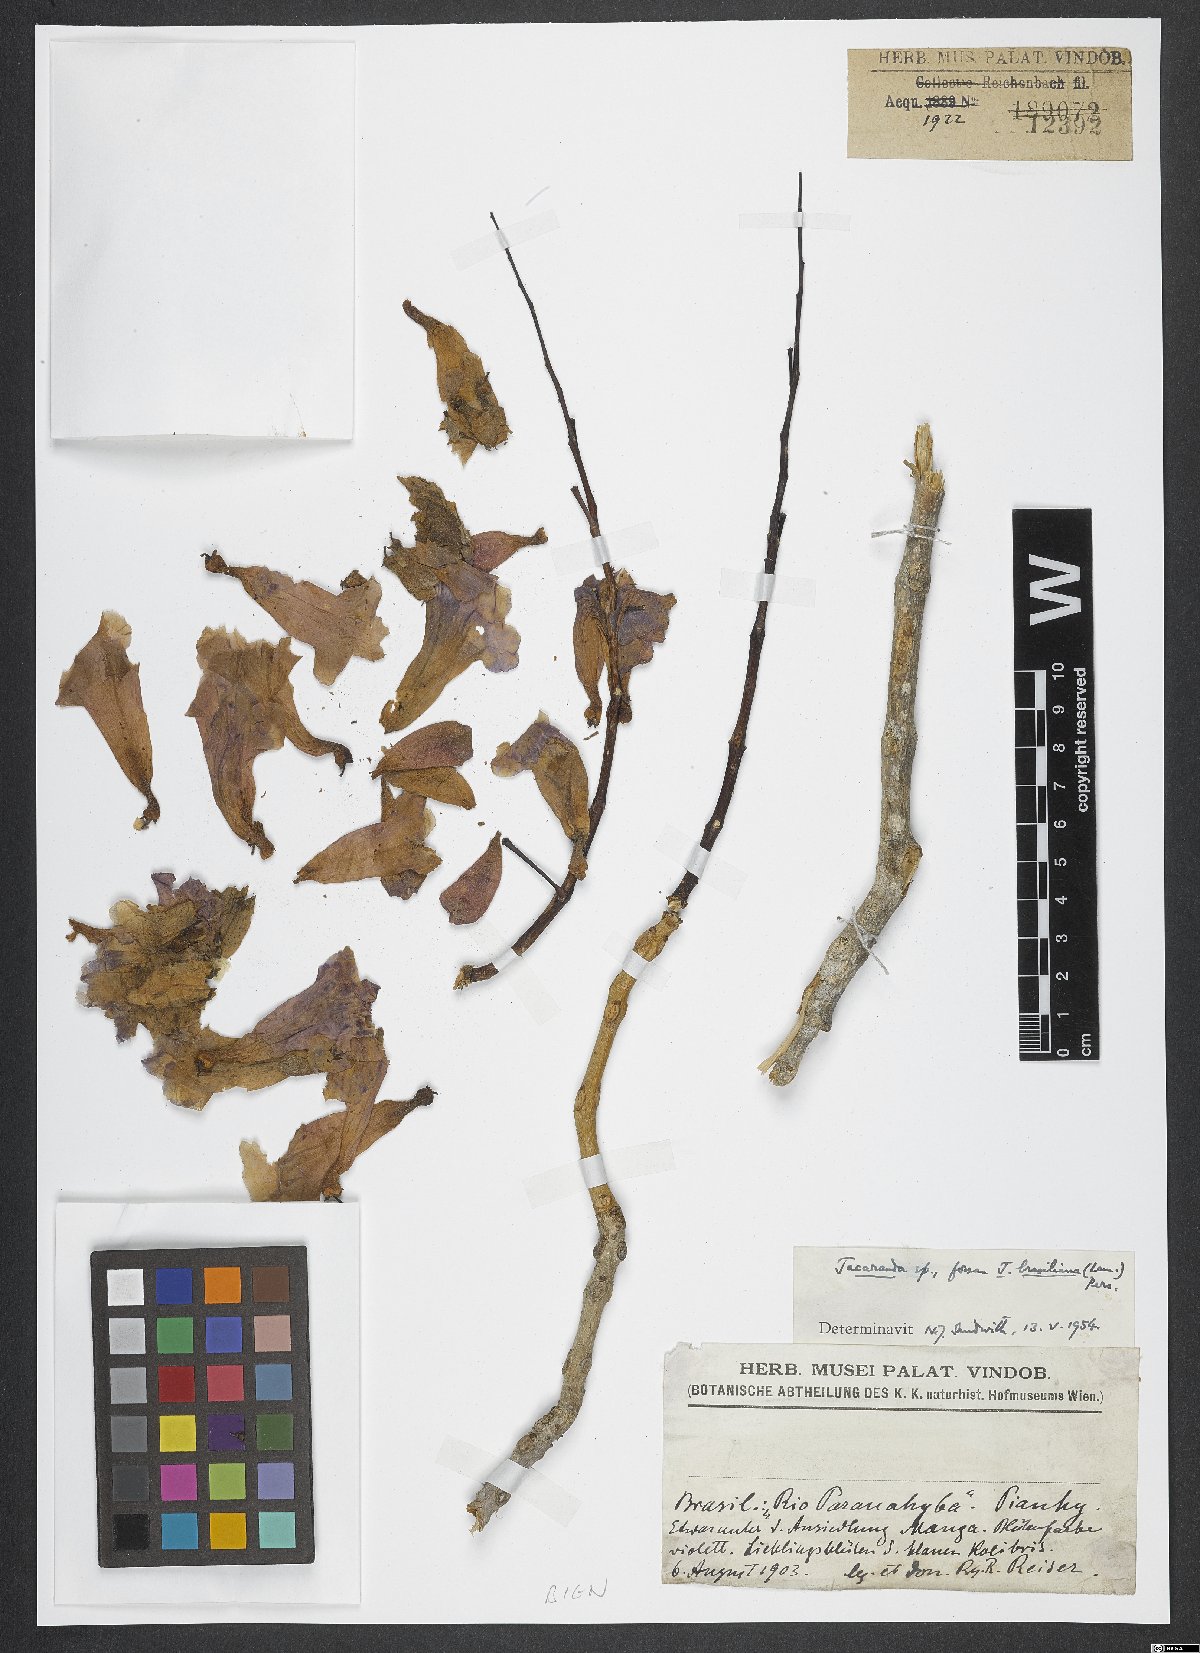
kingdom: Plantae
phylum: Tracheophyta
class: Magnoliopsida
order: Lamiales
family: Bignoniaceae
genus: Jacaranda
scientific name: Jacaranda brasiliana
